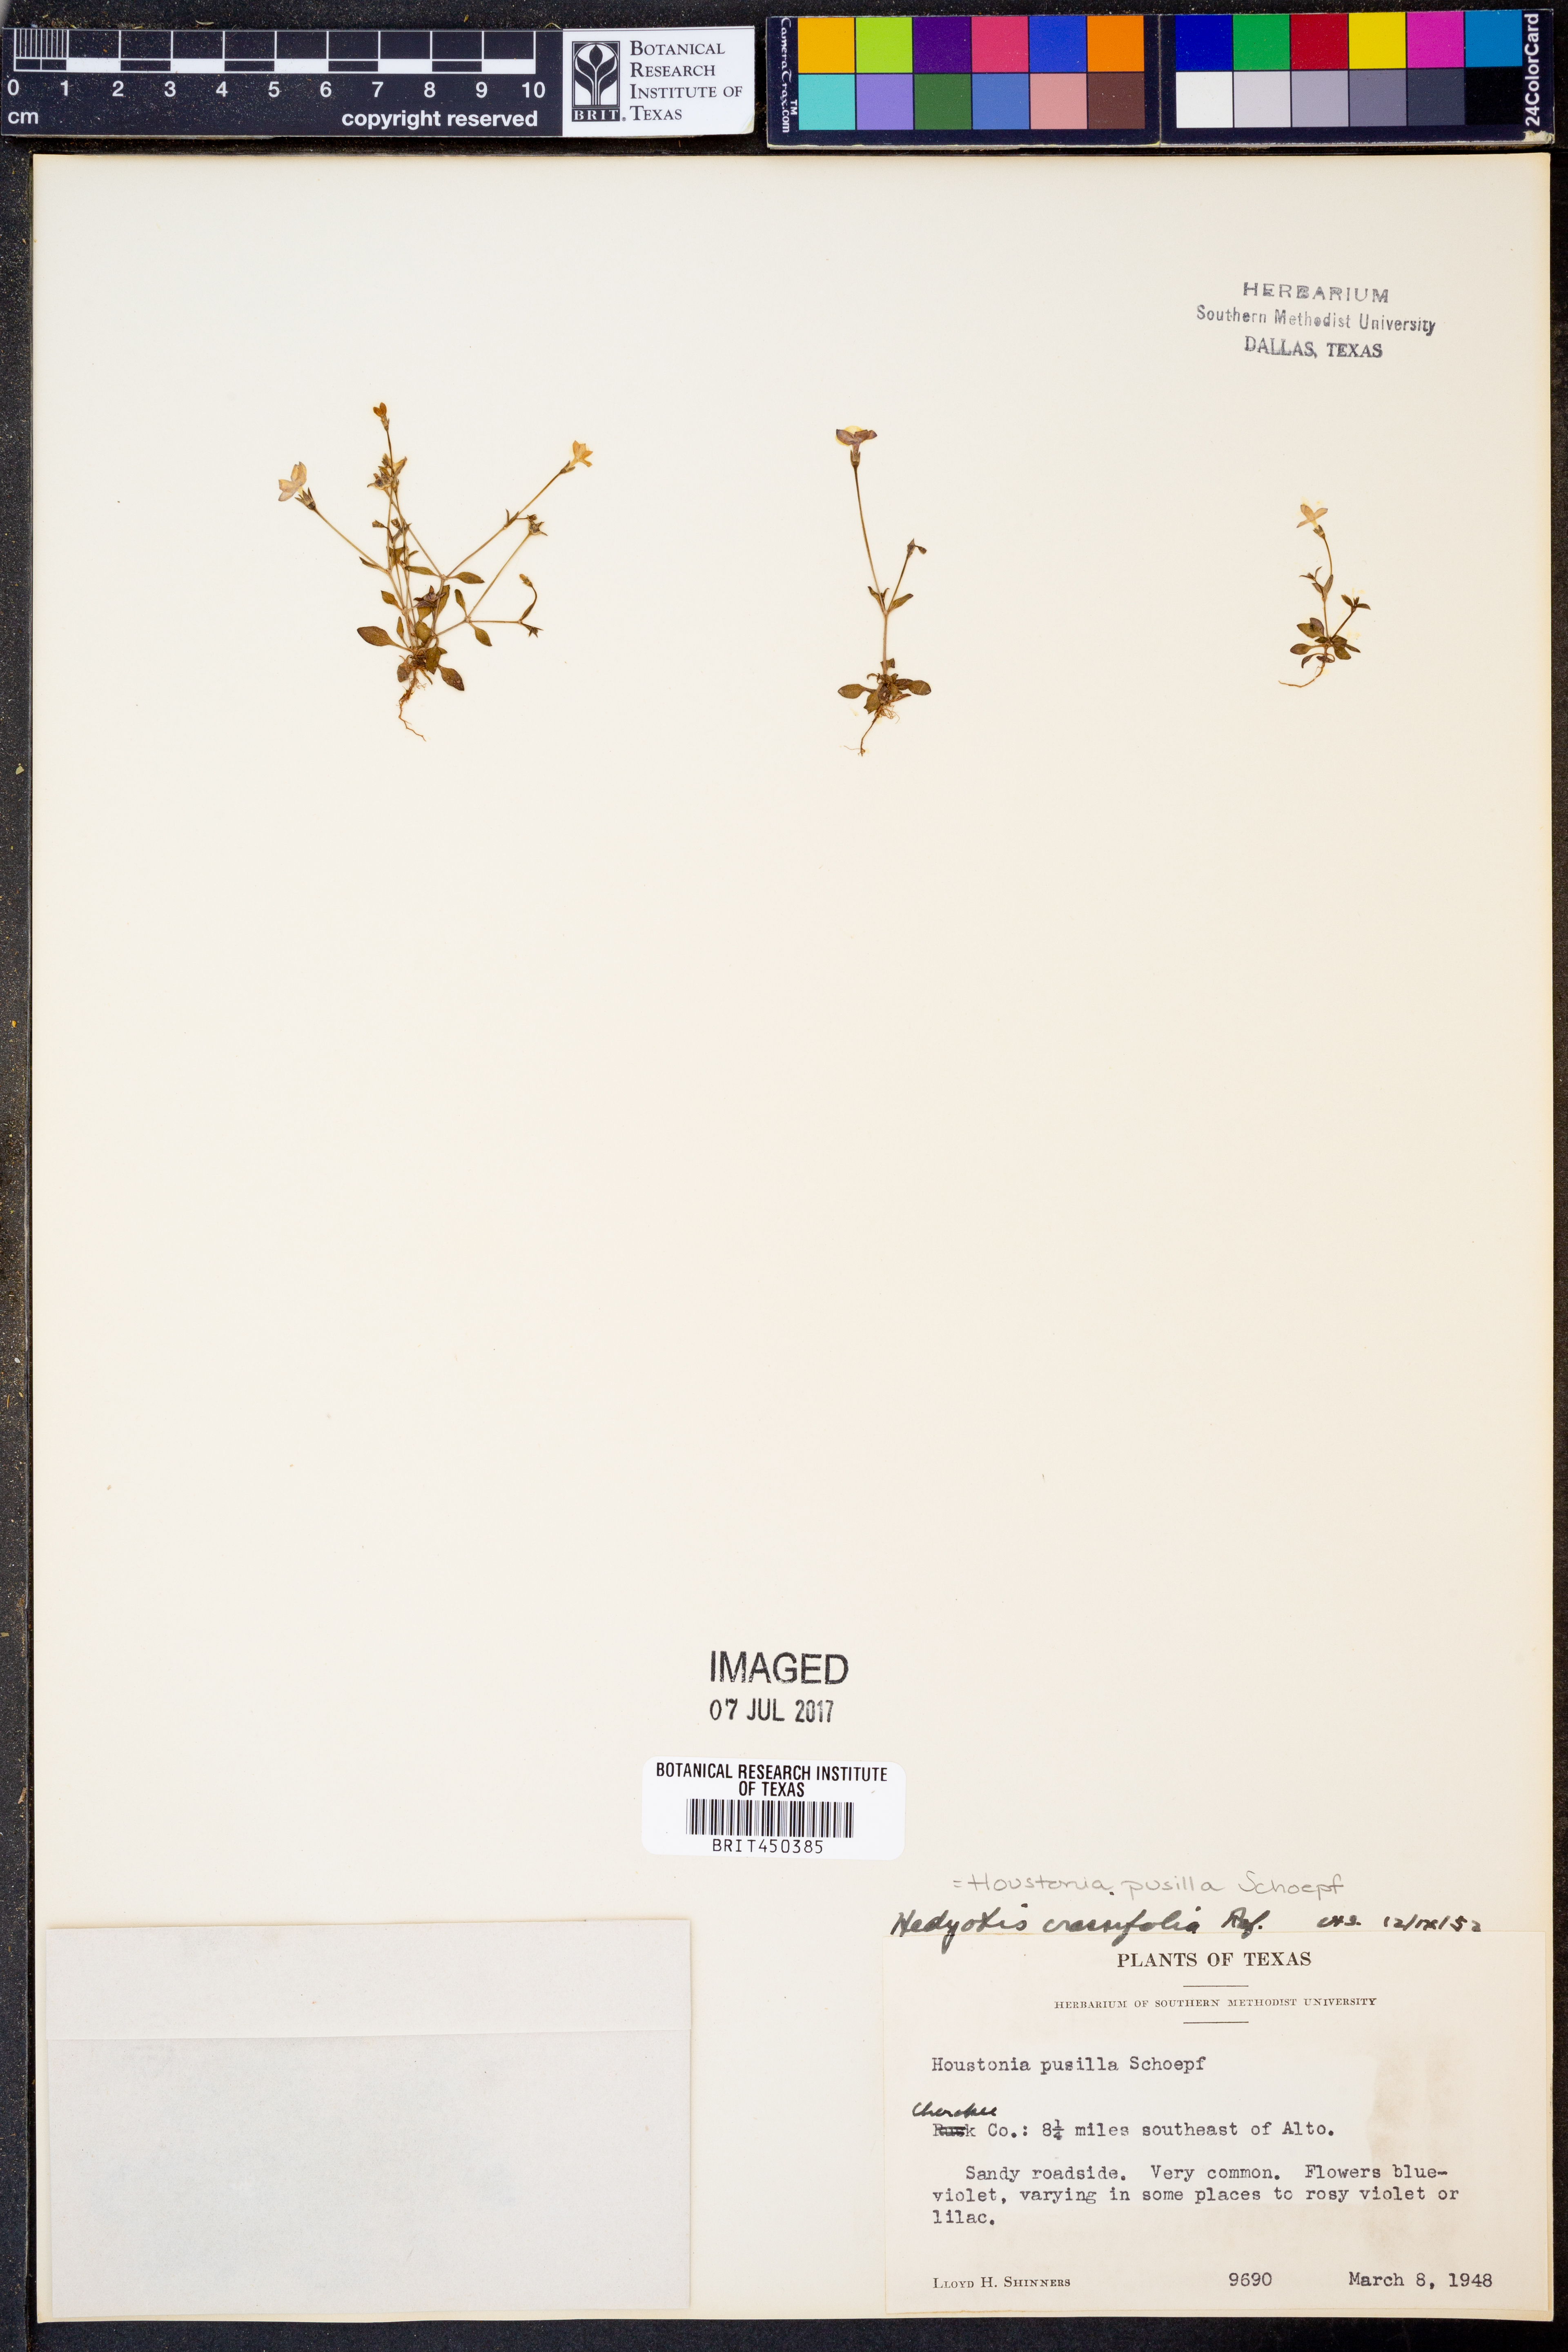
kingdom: Plantae
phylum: Tracheophyta
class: Magnoliopsida
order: Gentianales
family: Rubiaceae
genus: Houstonia
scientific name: Houstonia pusilla
